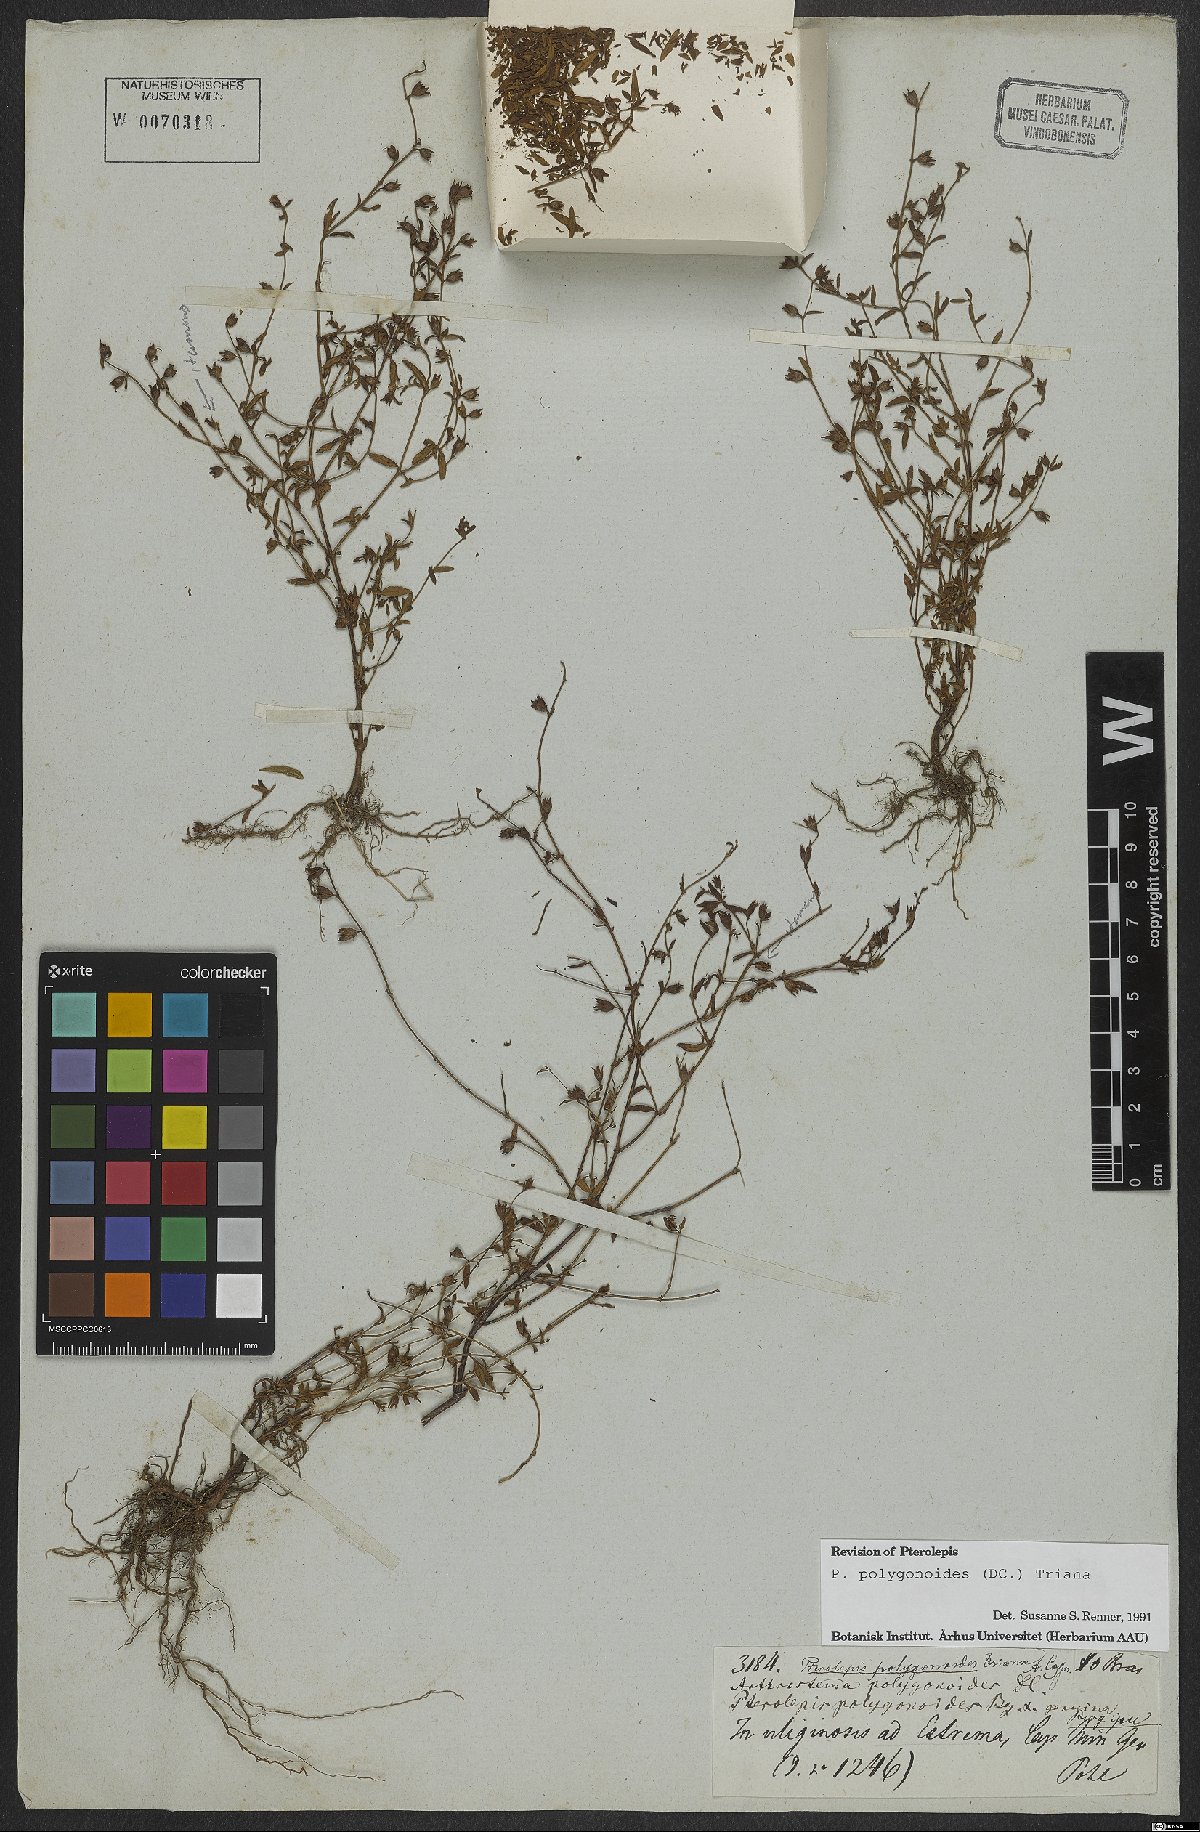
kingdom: Plantae
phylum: Tracheophyta
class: Magnoliopsida
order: Myrtales
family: Melastomataceae
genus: Pterolepis
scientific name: Pterolepis polygonoides
